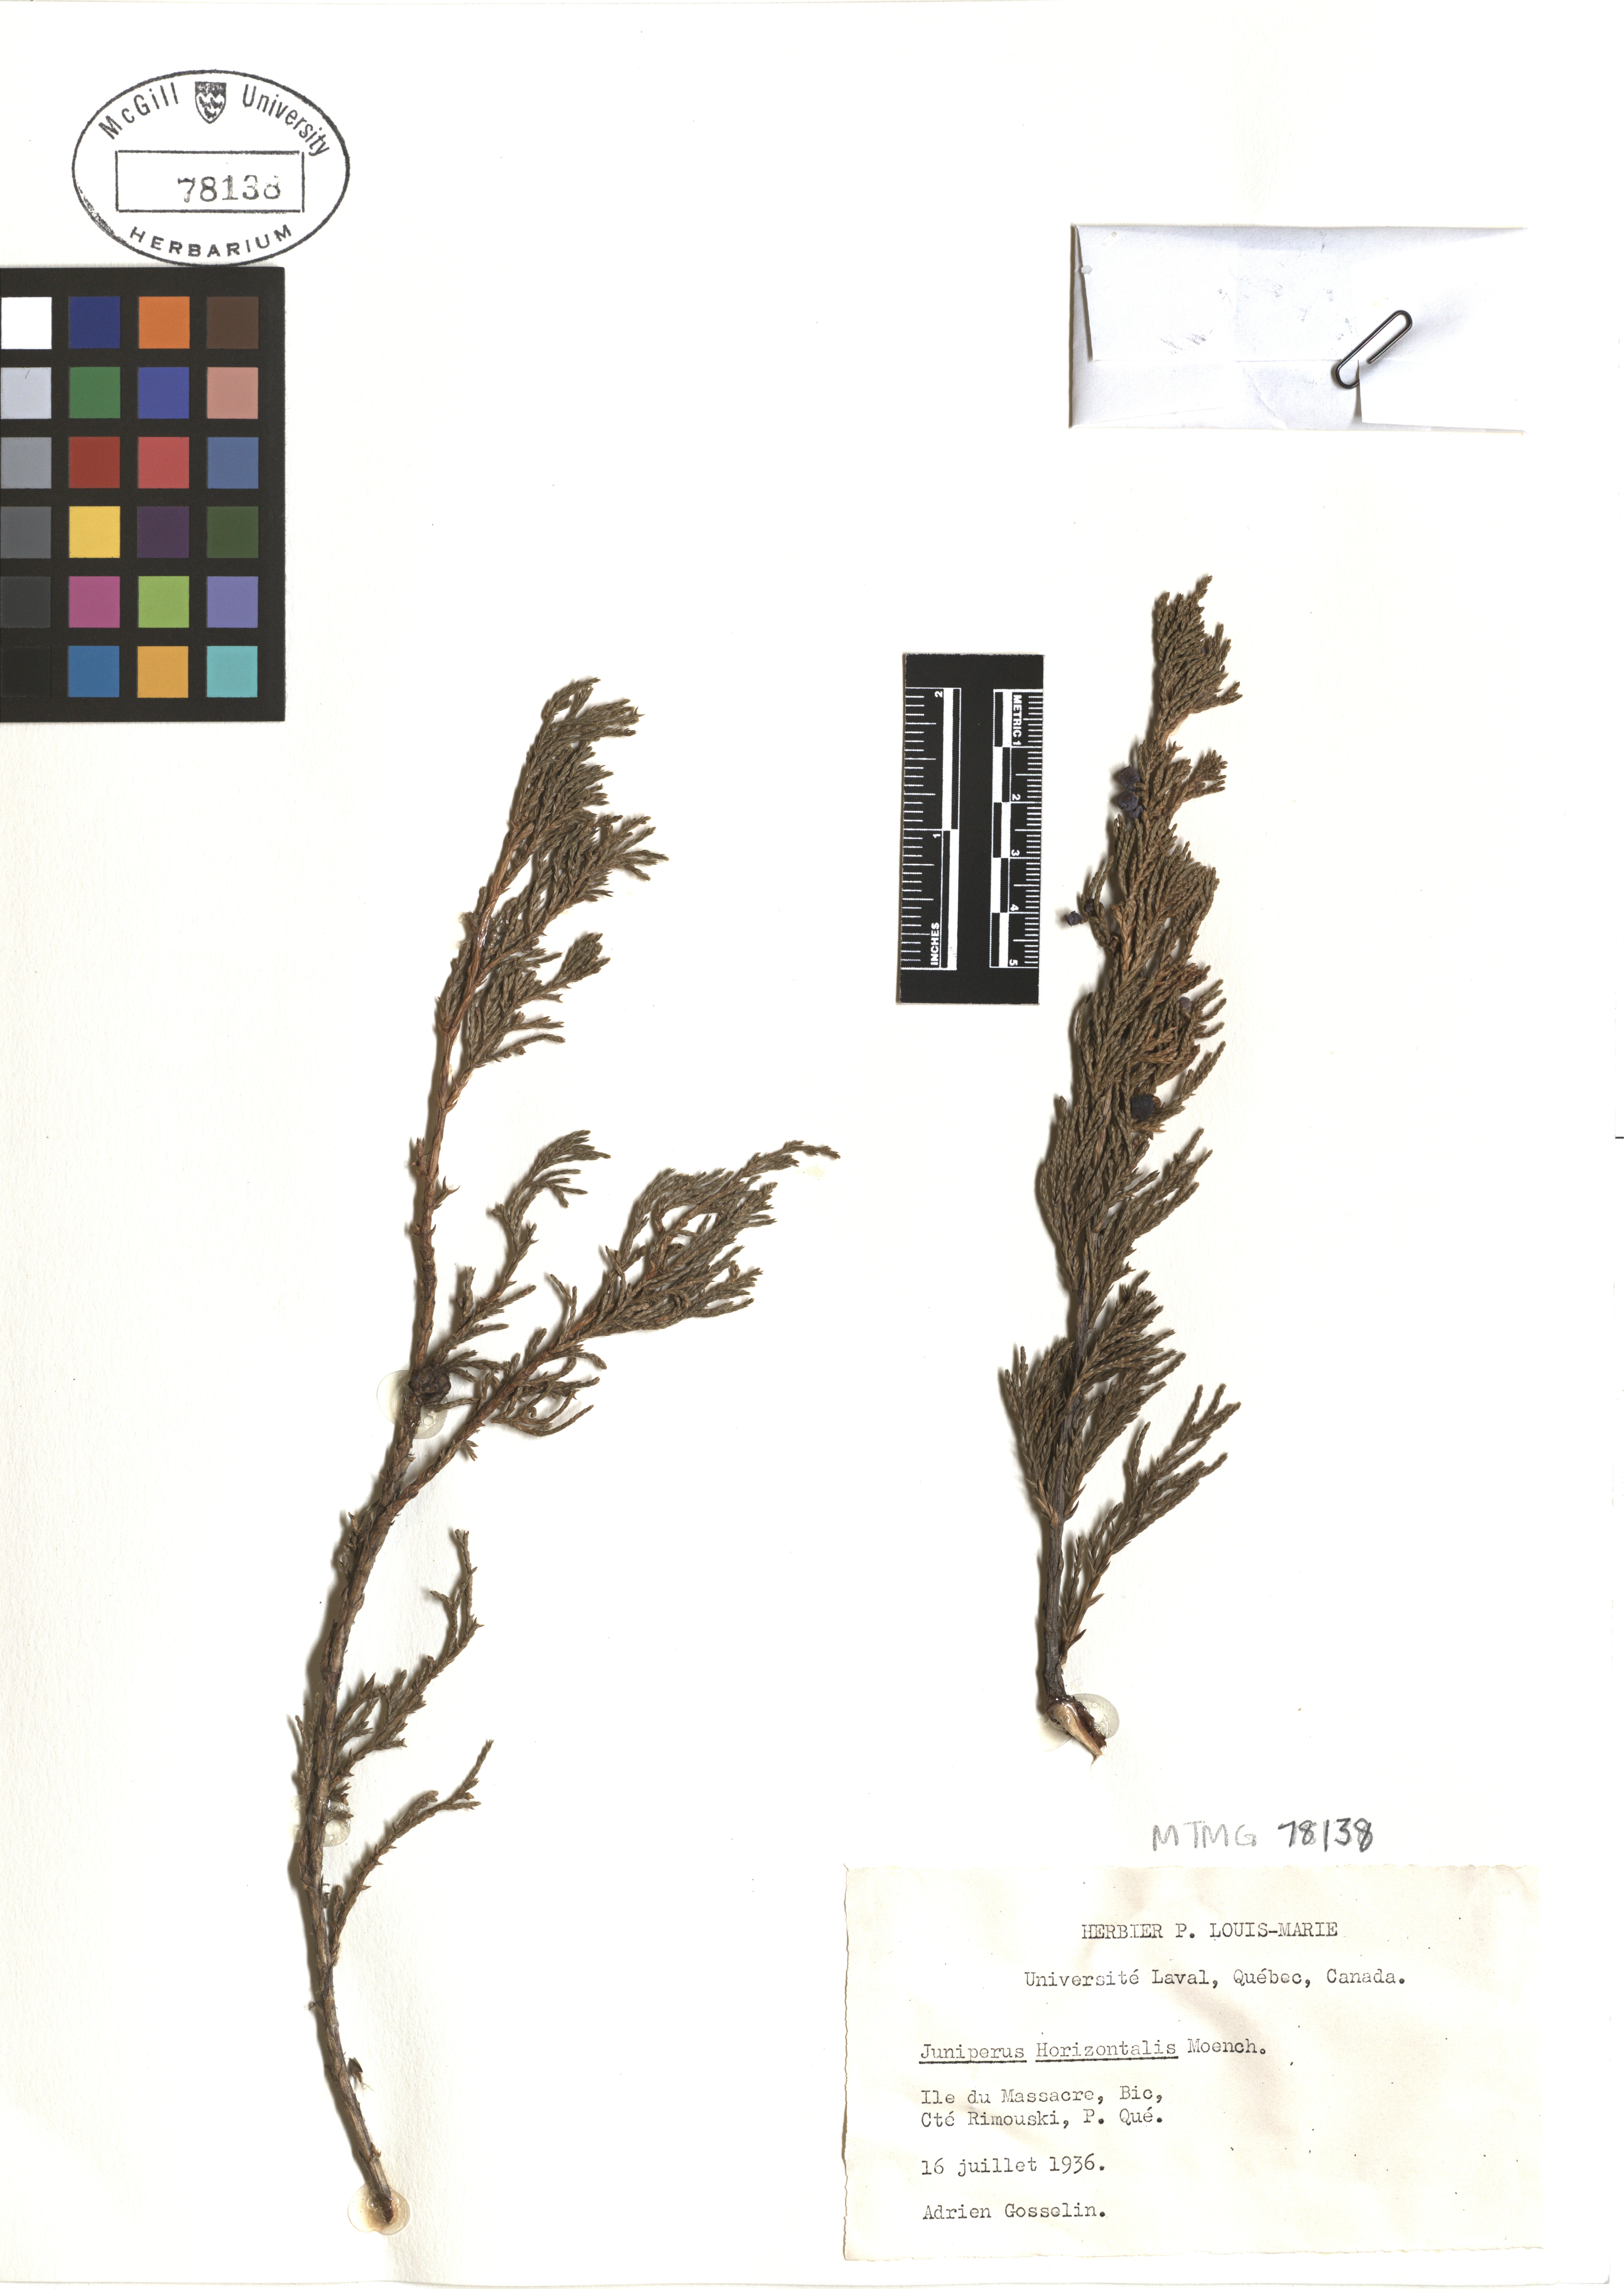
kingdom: Plantae
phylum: Tracheophyta
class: Pinopsida
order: Pinales
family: Cupressaceae
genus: Juniperus
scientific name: Juniperus horizontalis
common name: Creeping juniper
